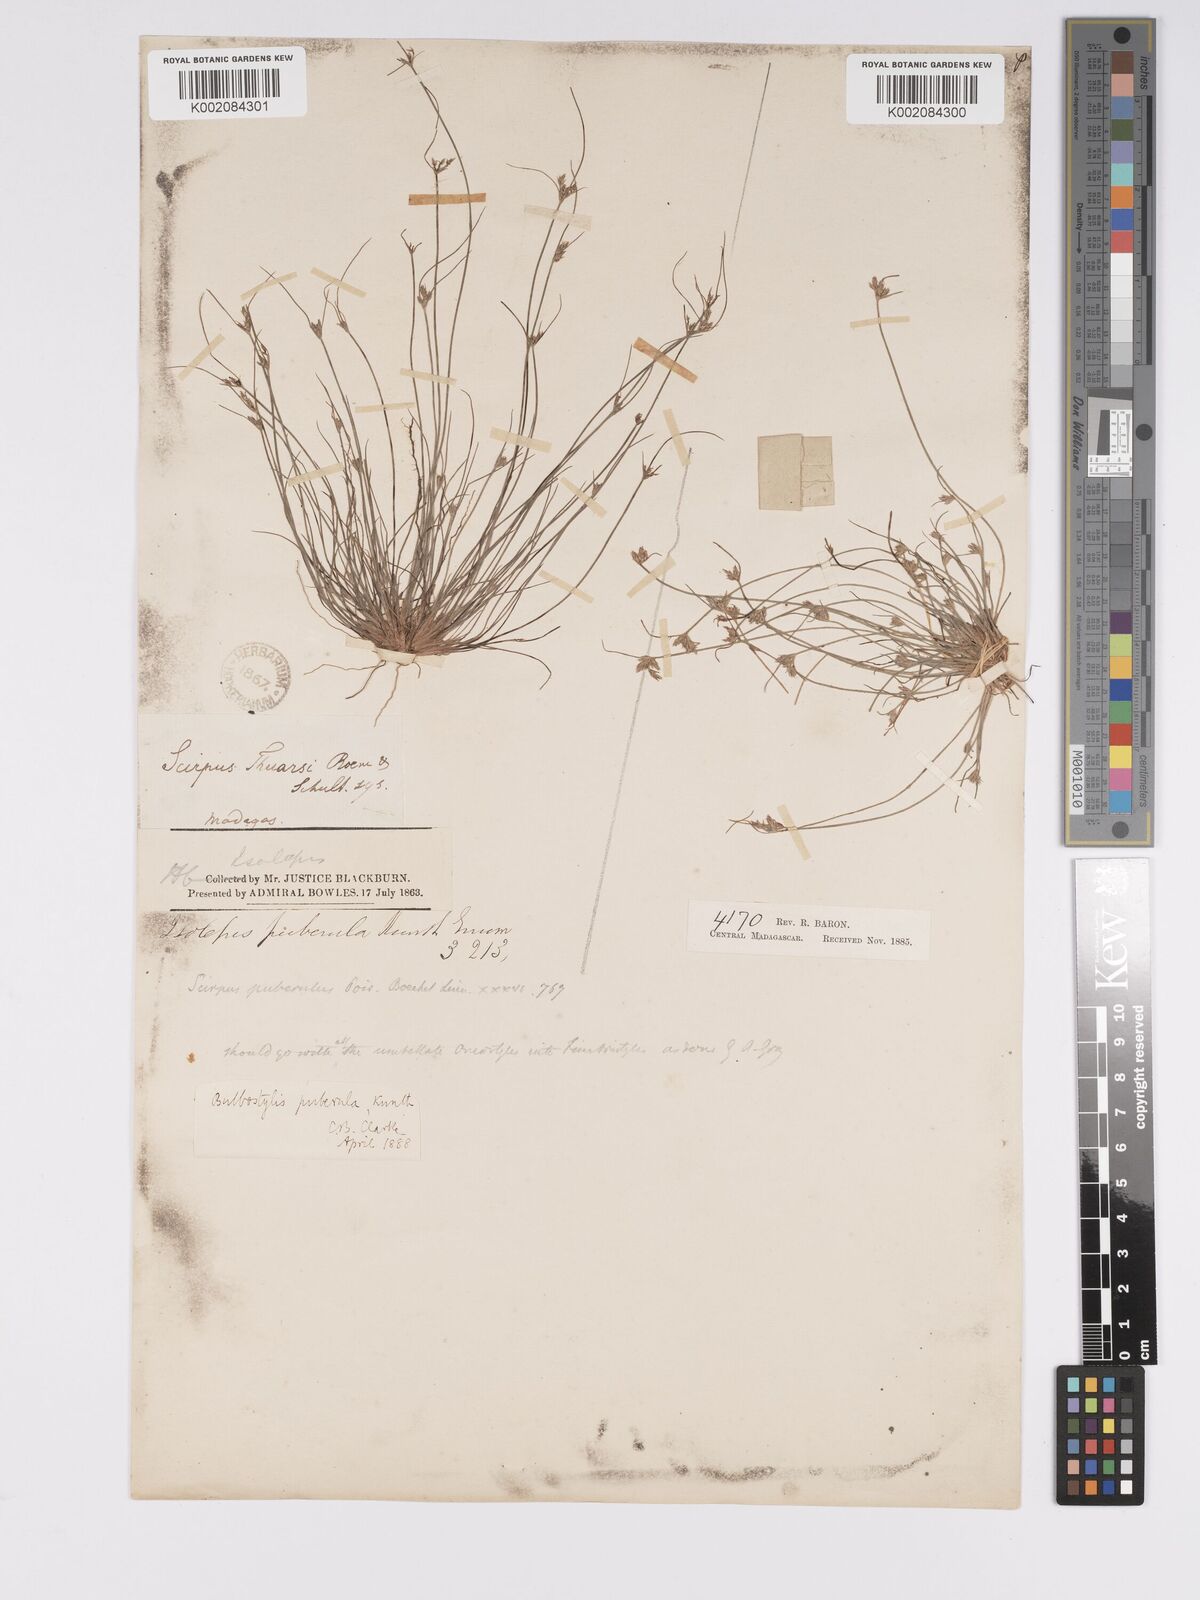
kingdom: Plantae
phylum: Tracheophyta
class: Liliopsida
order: Poales
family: Cyperaceae
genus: Bulbostylis
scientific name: Bulbostylis thouarsii
